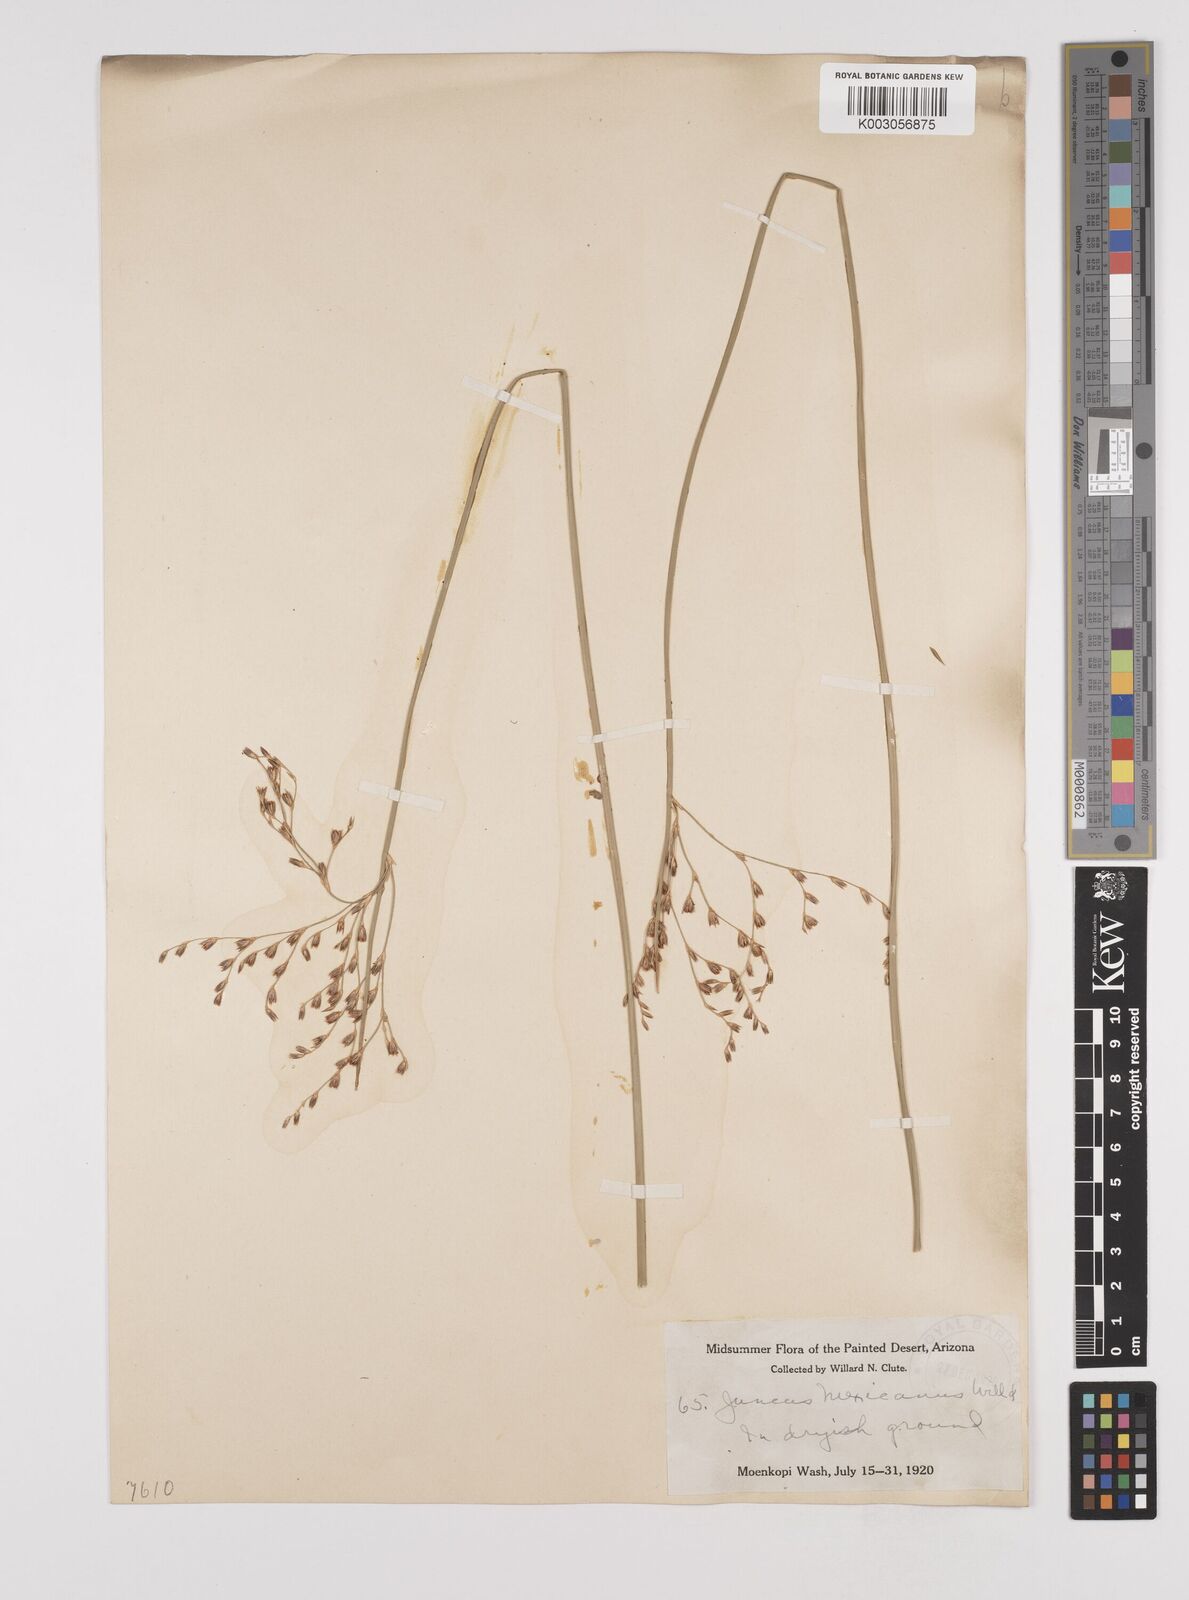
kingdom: Plantae
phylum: Tracheophyta
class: Liliopsida
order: Poales
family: Juncaceae
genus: Juncus
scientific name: Juncus balticus
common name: Baltic rush
